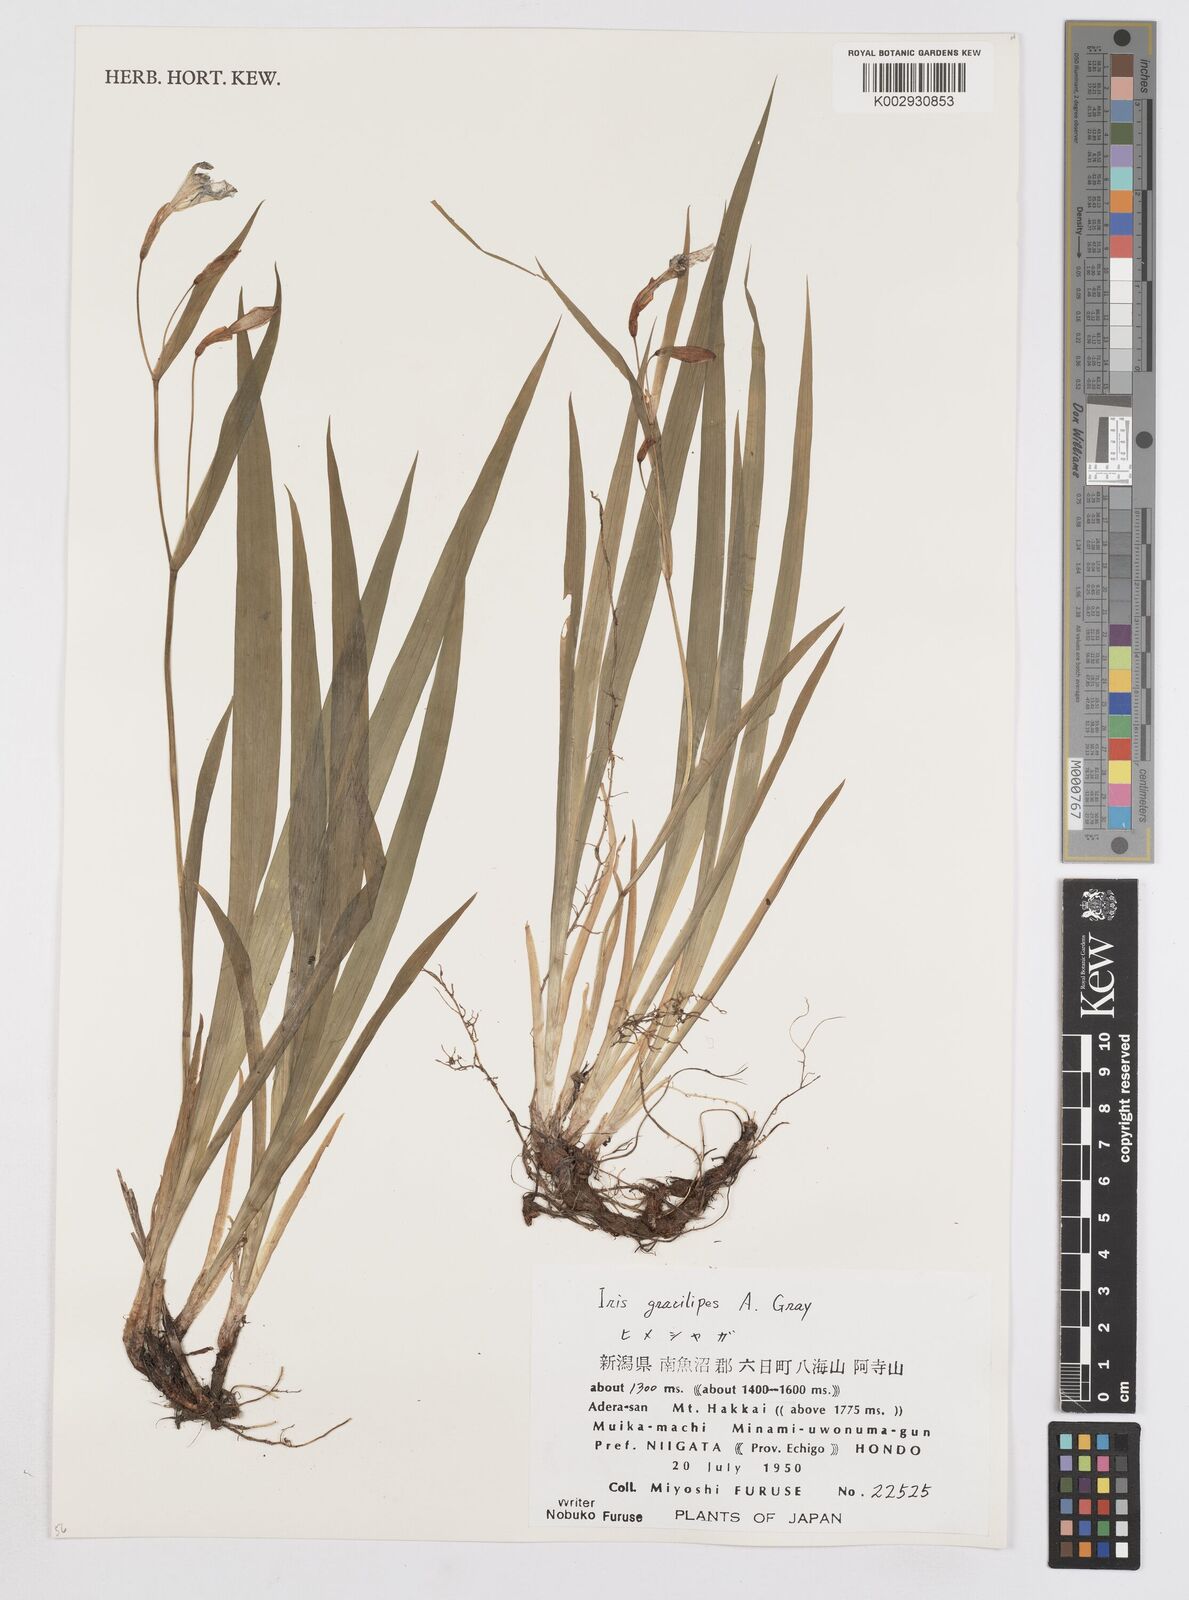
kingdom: Plantae
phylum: Tracheophyta
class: Liliopsida
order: Asparagales
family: Iridaceae
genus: Iris
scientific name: Iris gracilipes
